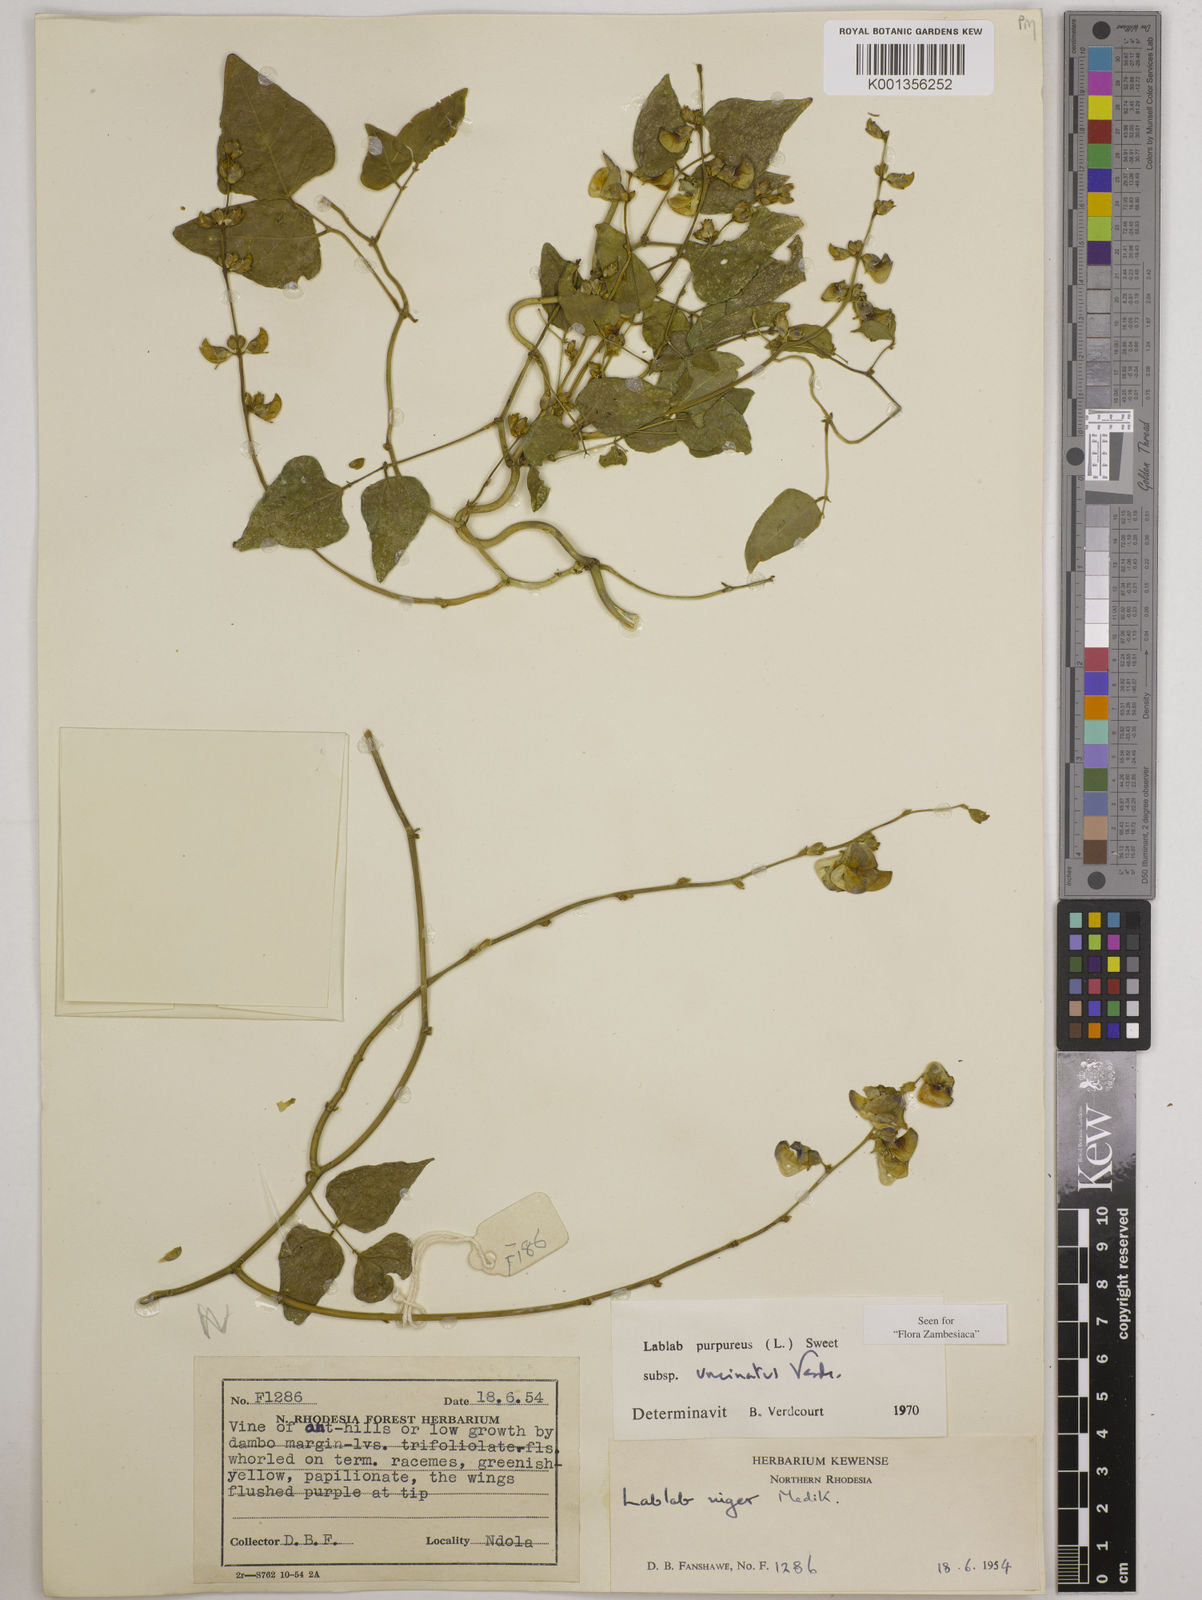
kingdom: Plantae
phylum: Tracheophyta
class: Magnoliopsida
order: Fabales
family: Fabaceae
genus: Lablab
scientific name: Lablab purpureus
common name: Lablab-bean
